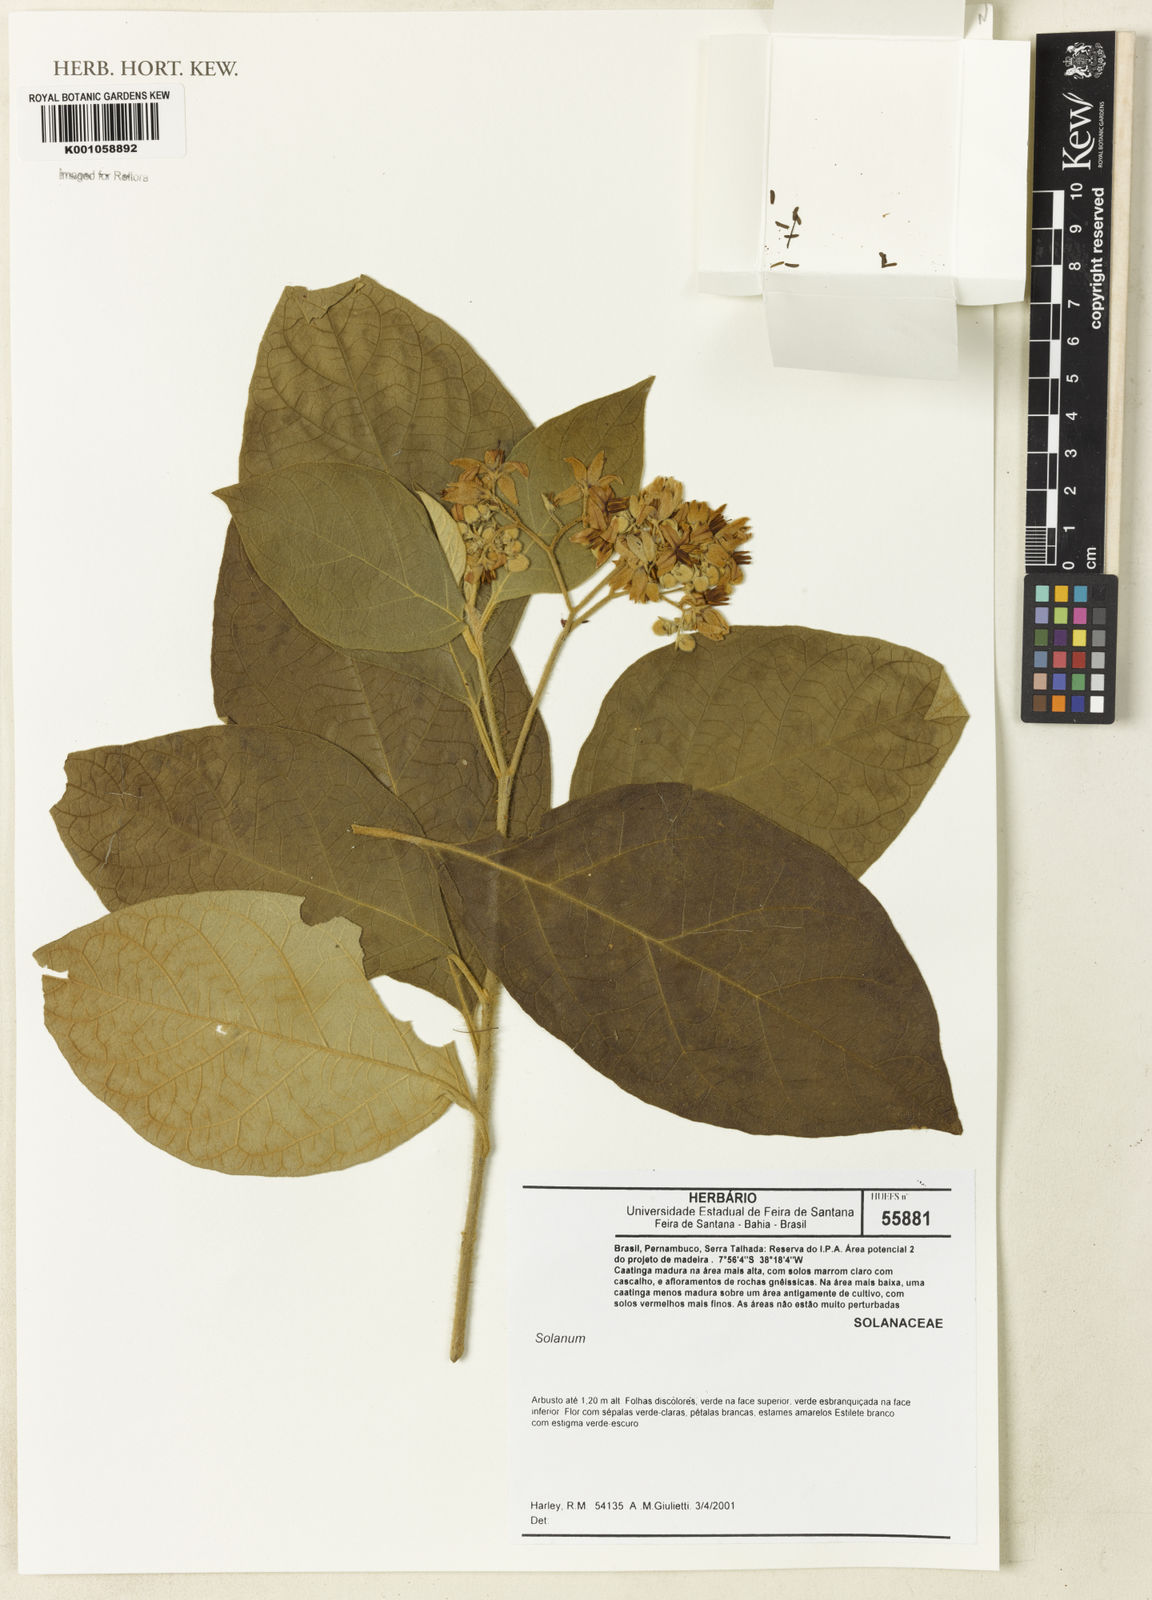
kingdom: Plantae
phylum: Tracheophyta
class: Magnoliopsida
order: Solanales
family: Solanaceae
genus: Solanum
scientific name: Solanum
